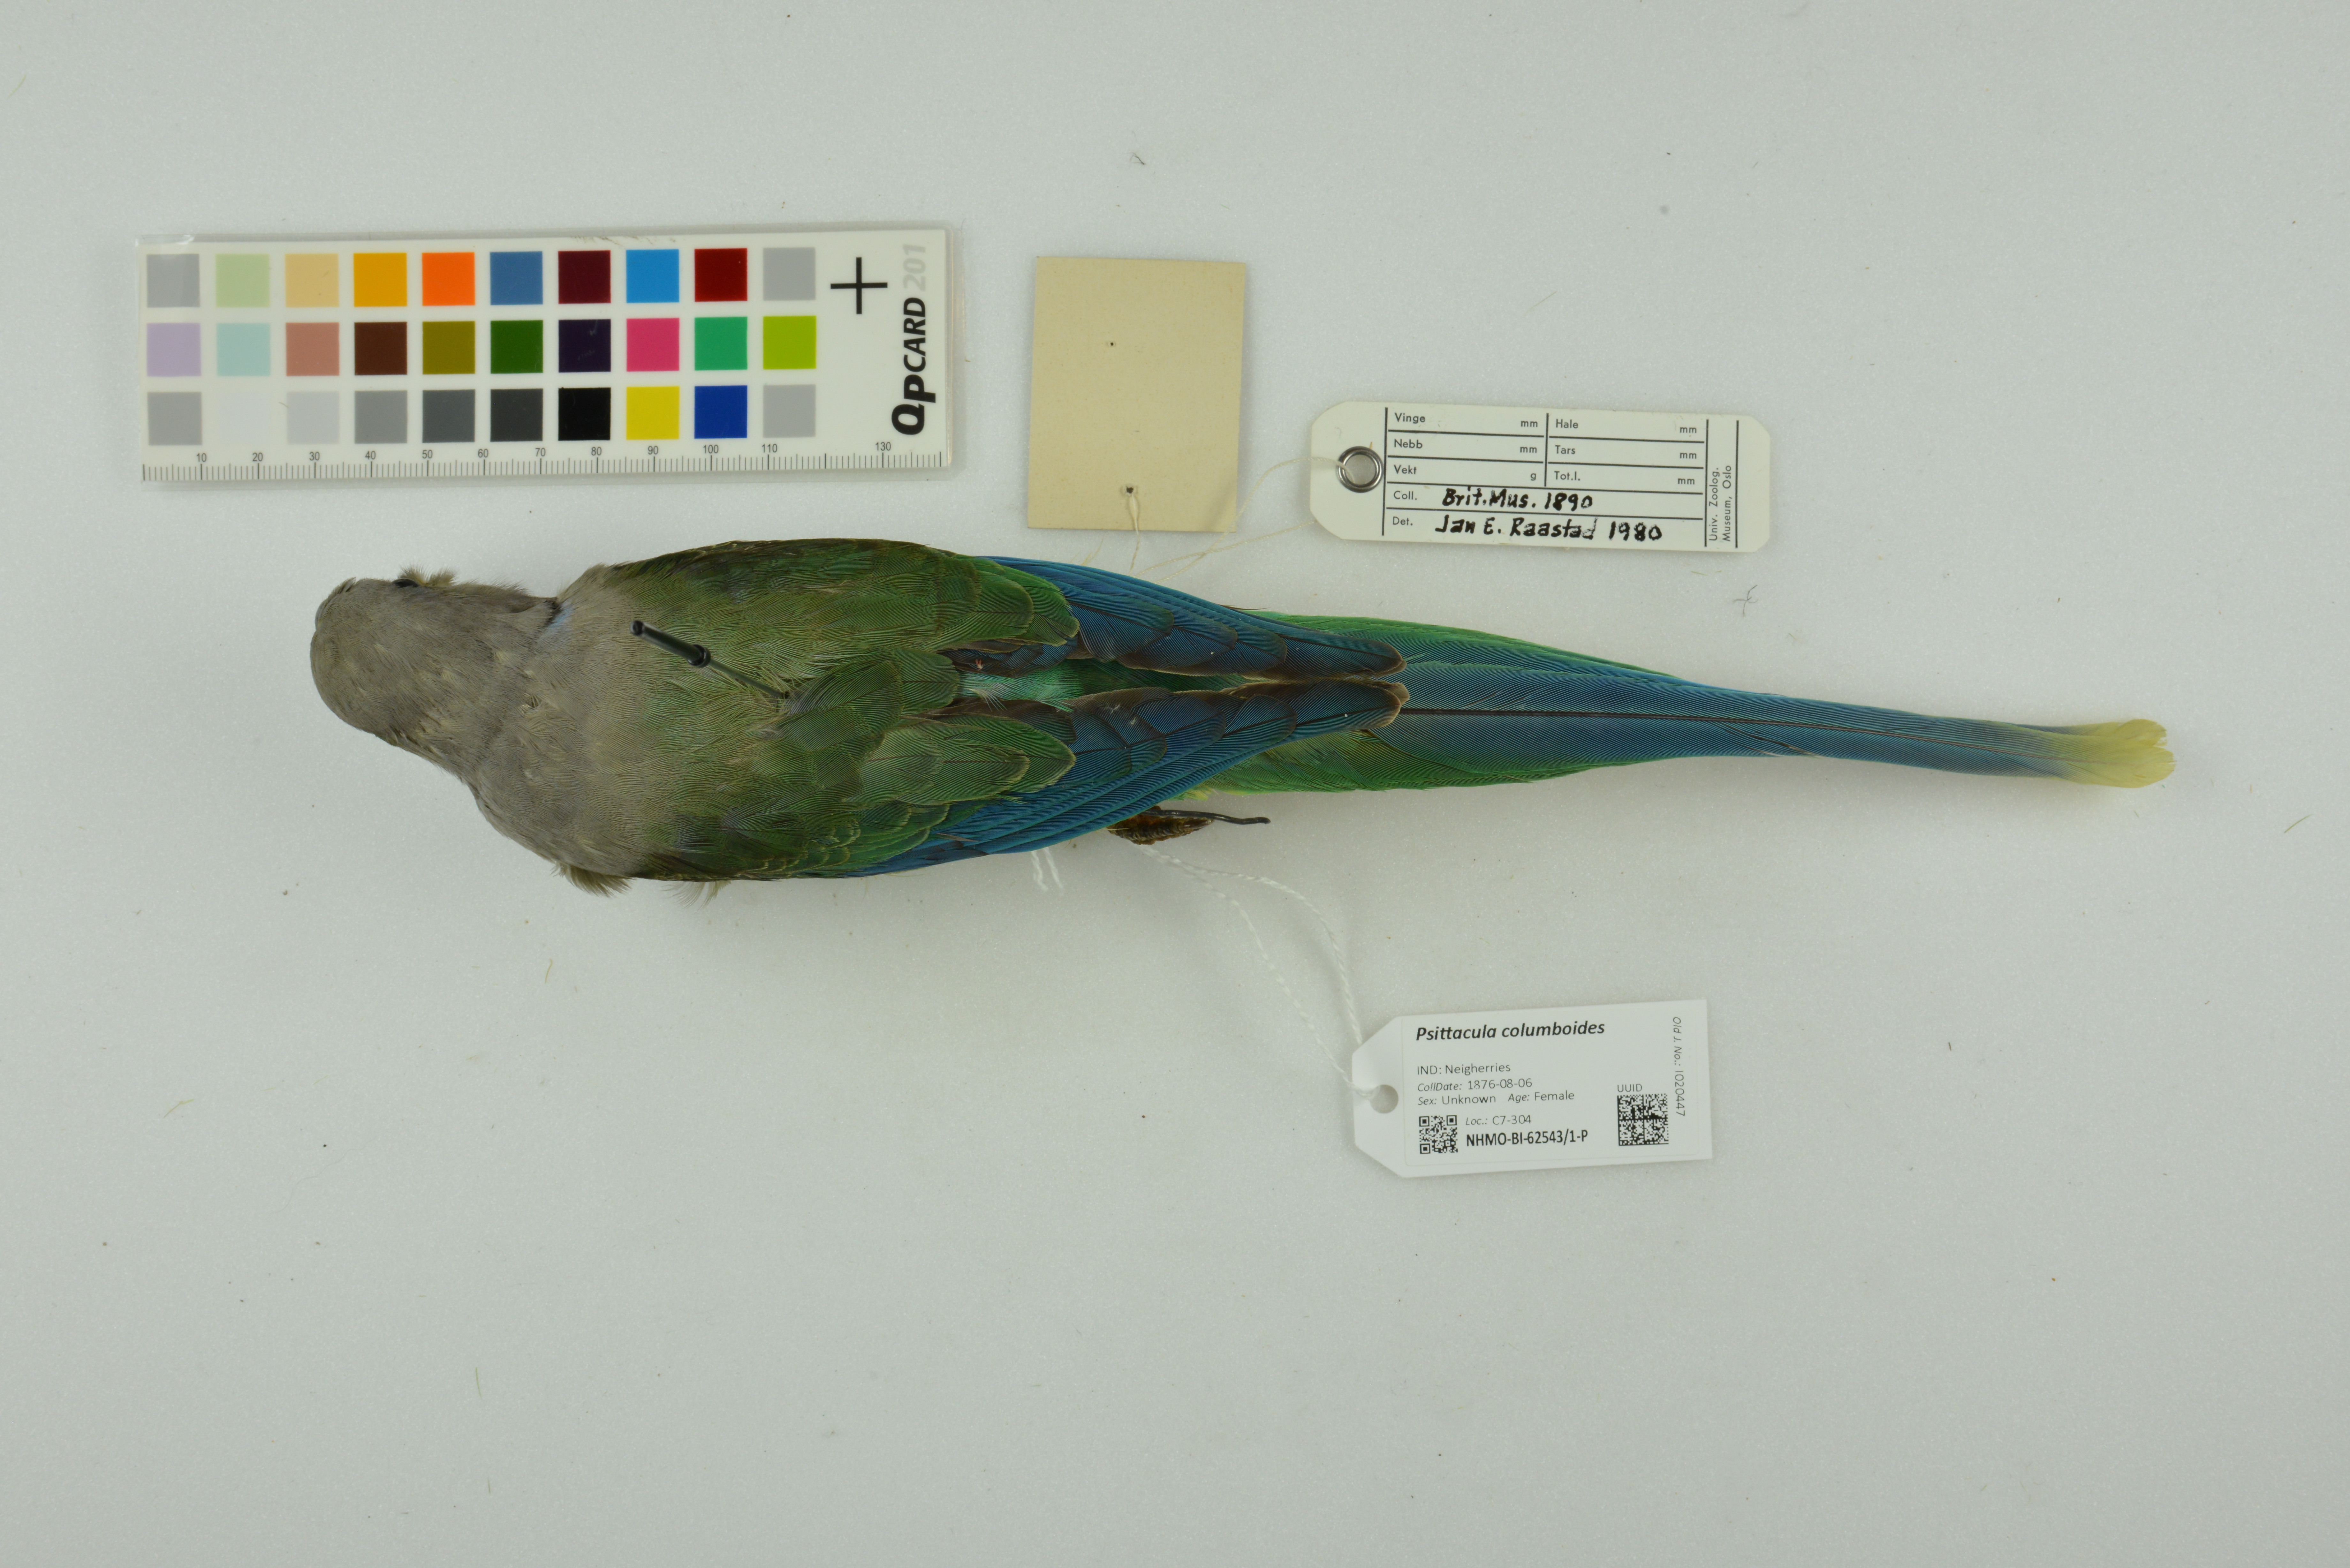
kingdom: Animalia
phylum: Chordata
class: Aves
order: Psittaciformes
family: Psittacidae
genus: Psittacula
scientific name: Psittacula columboides
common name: Blue-winged parakeet
